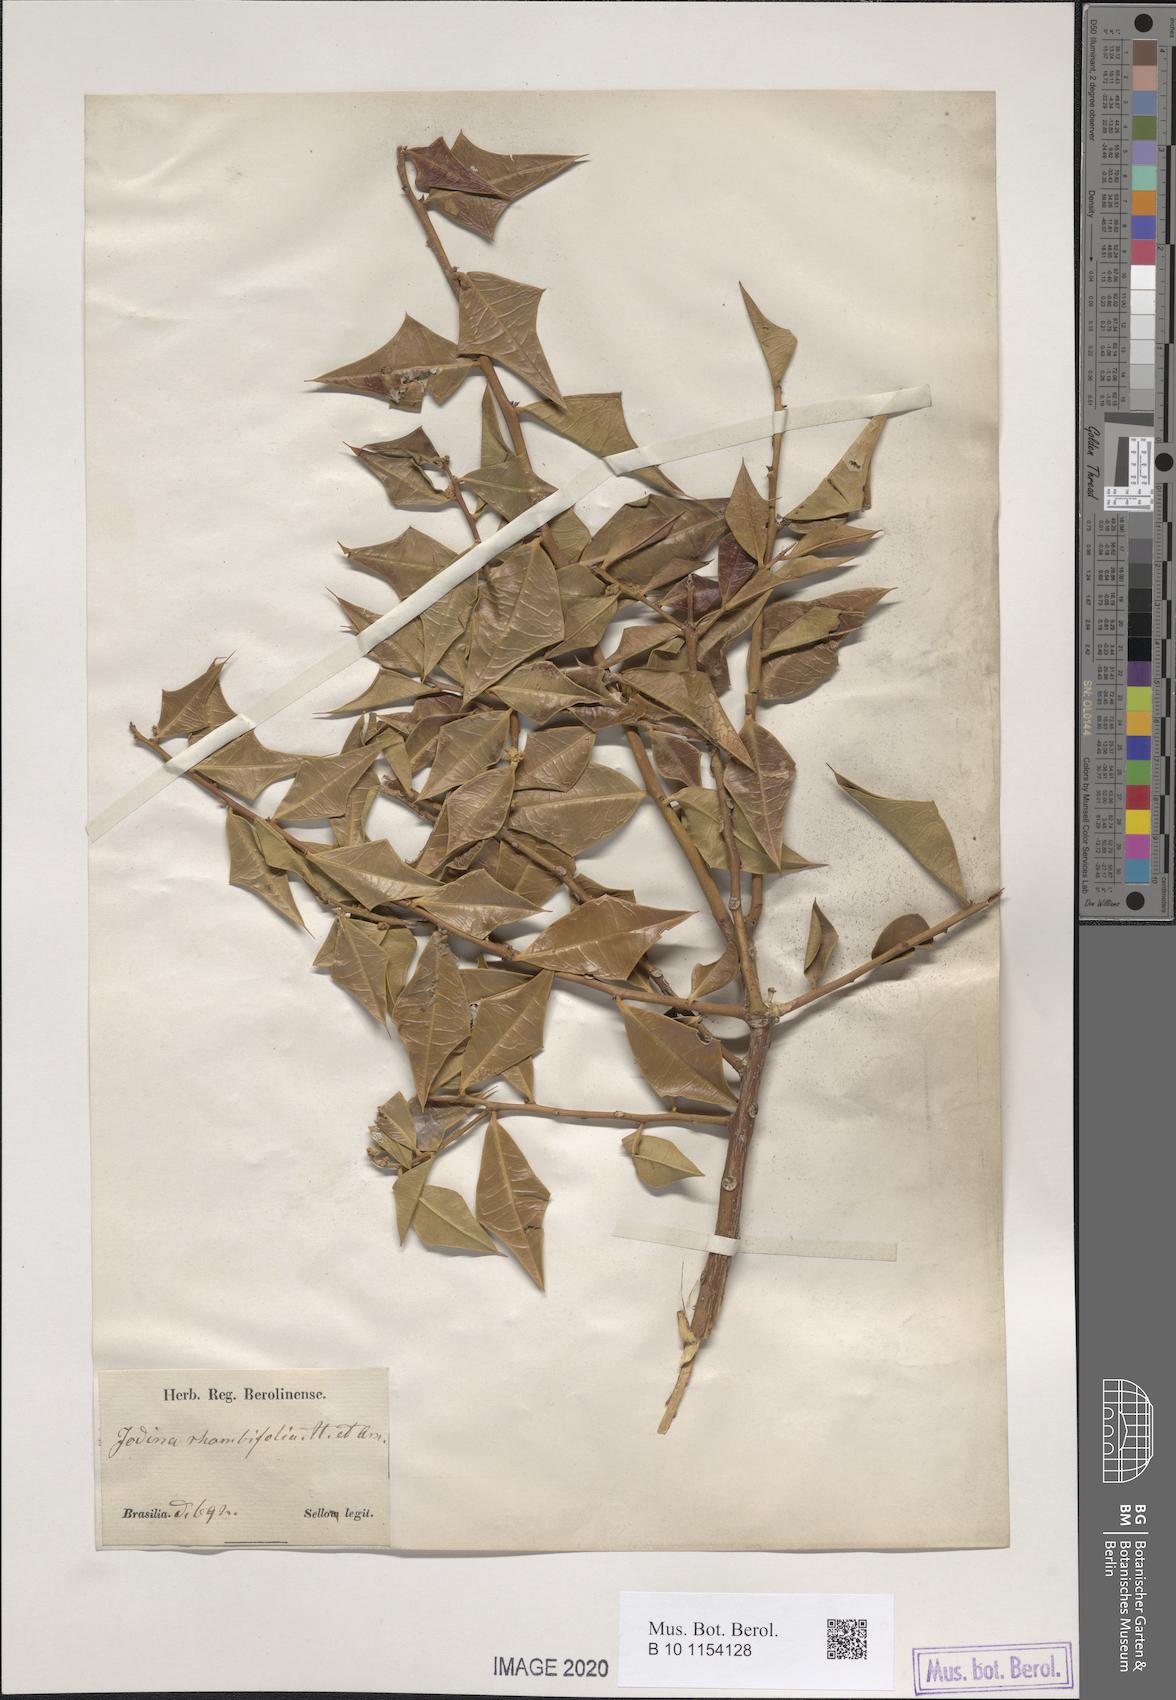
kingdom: Plantae
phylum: Tracheophyta
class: Magnoliopsida
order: Santalales
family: Cervantesiaceae
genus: Jodina
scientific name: Jodina rhombifolia
